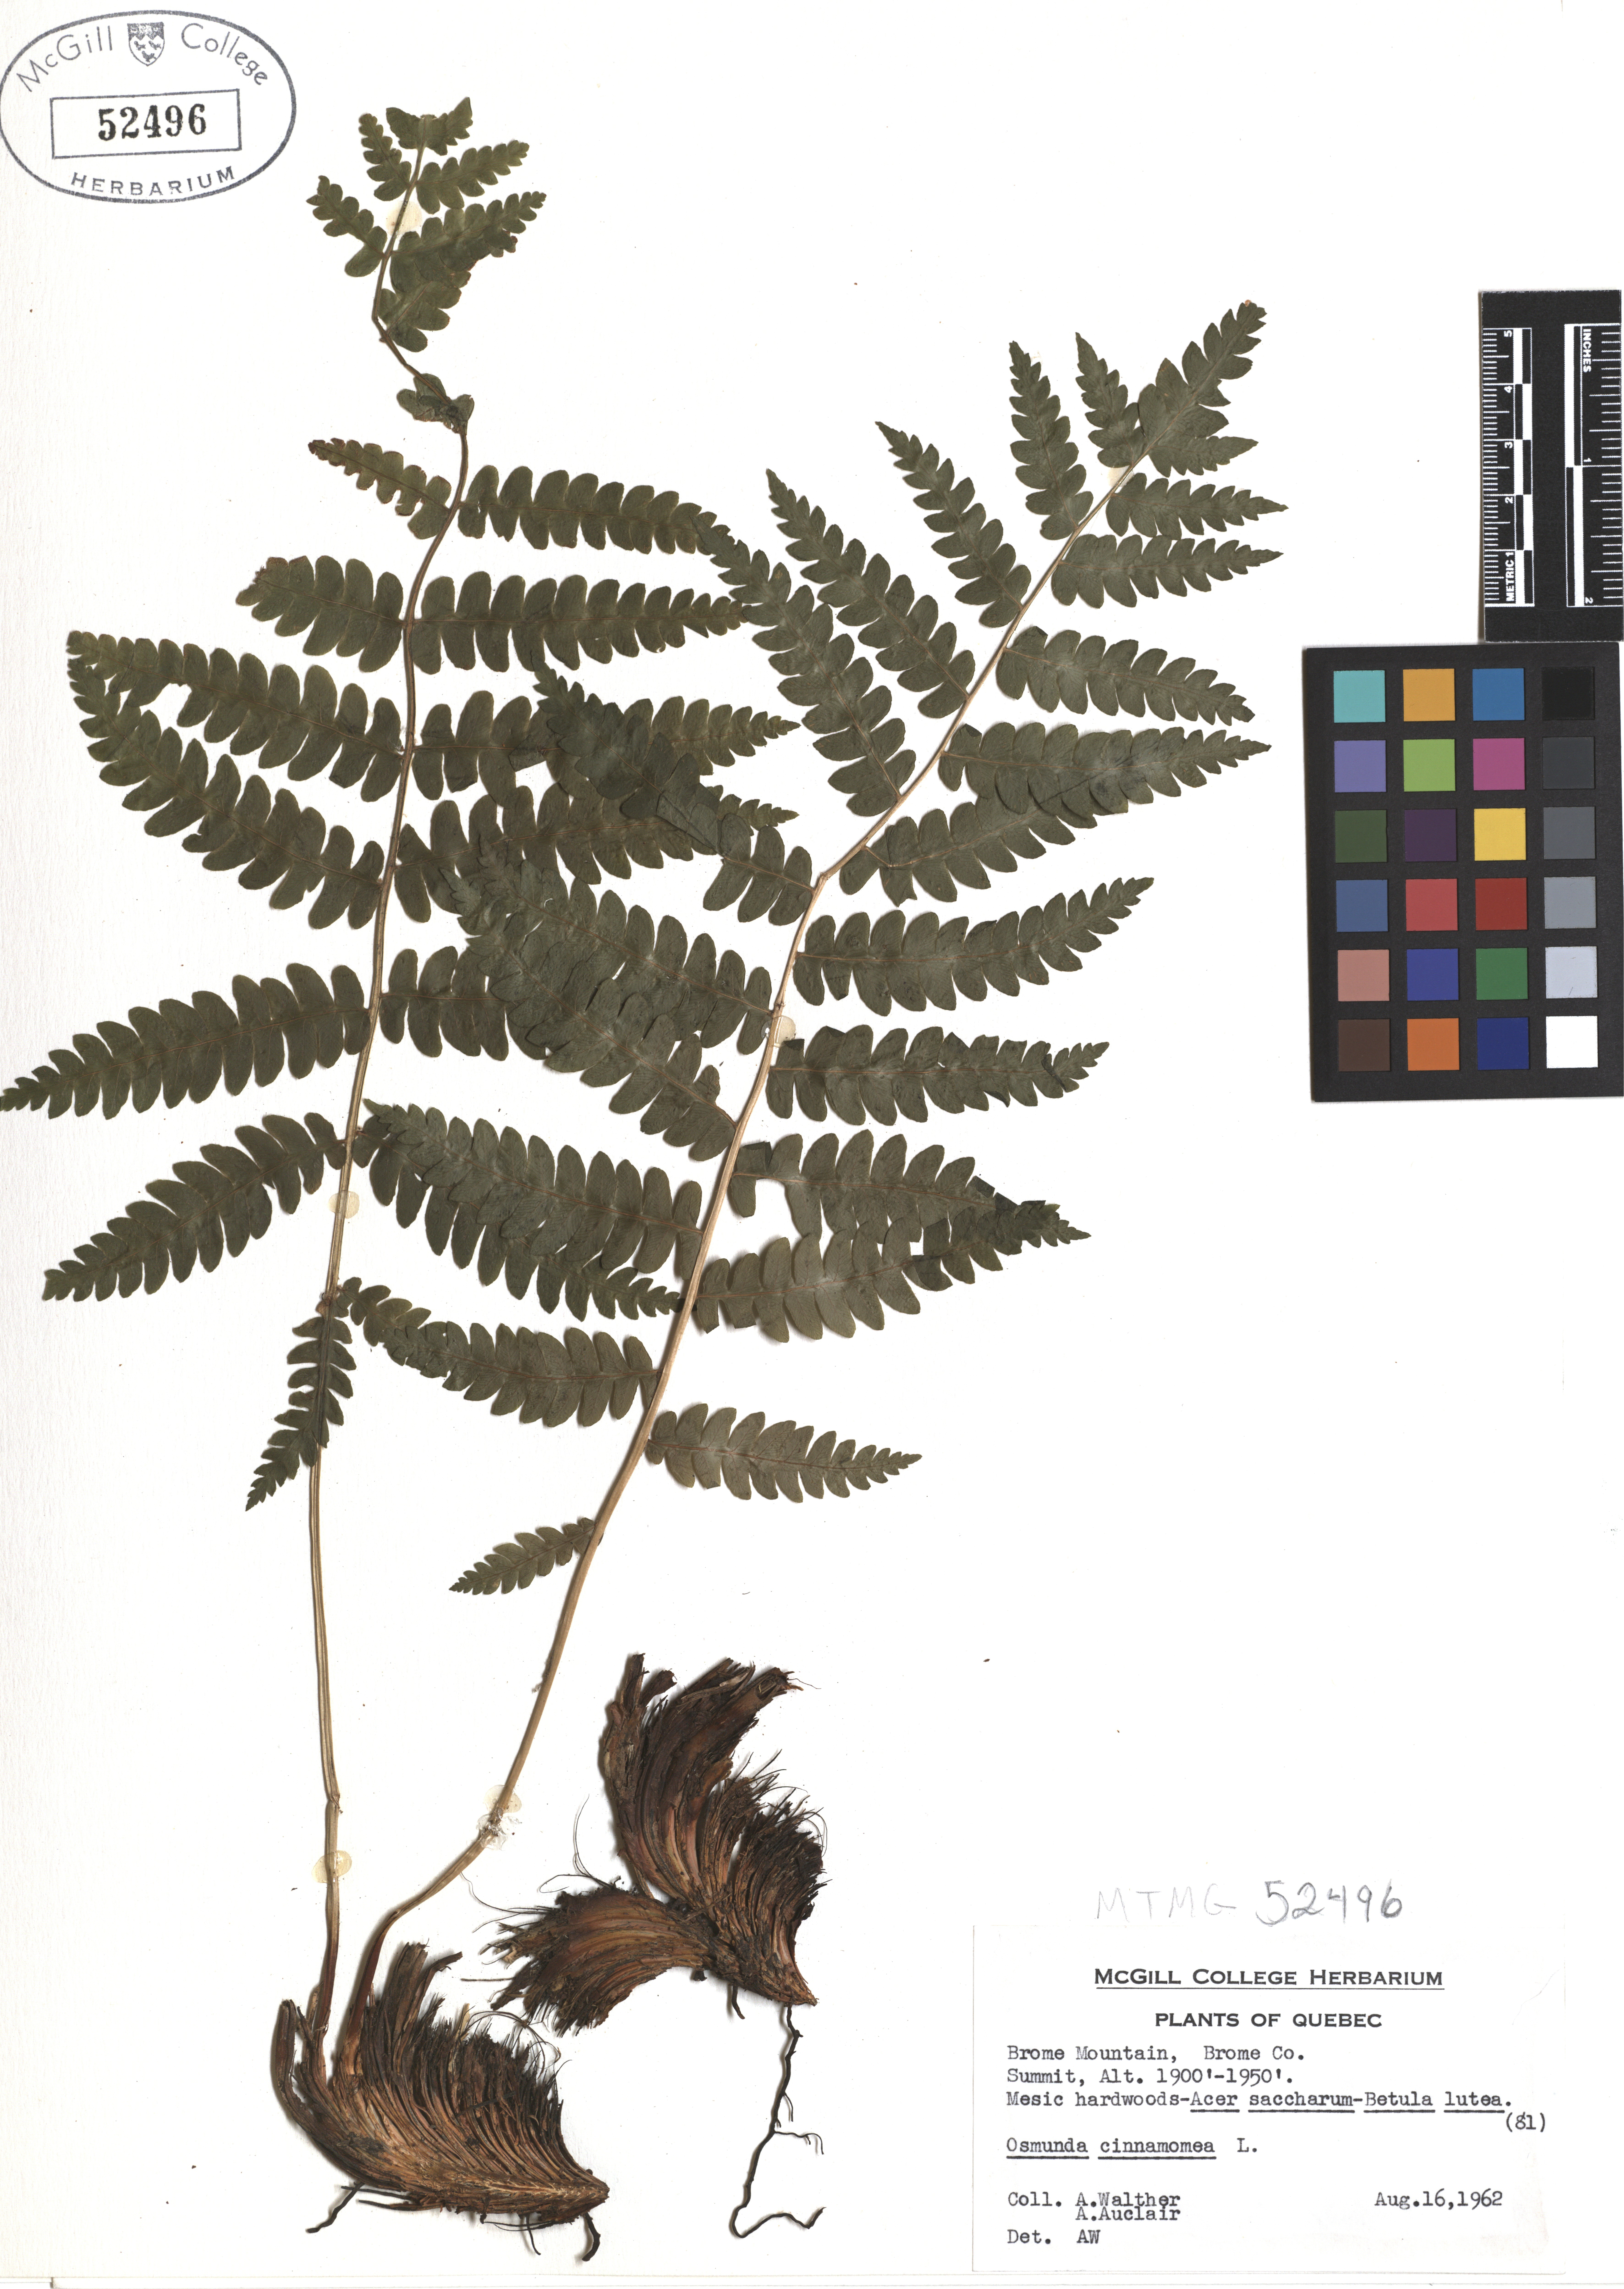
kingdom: Plantae
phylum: Tracheophyta
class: Polypodiopsida
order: Osmundales
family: Osmundaceae
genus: Osmundastrum
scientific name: Osmundastrum cinnamomeum
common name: Cinnamon fern
